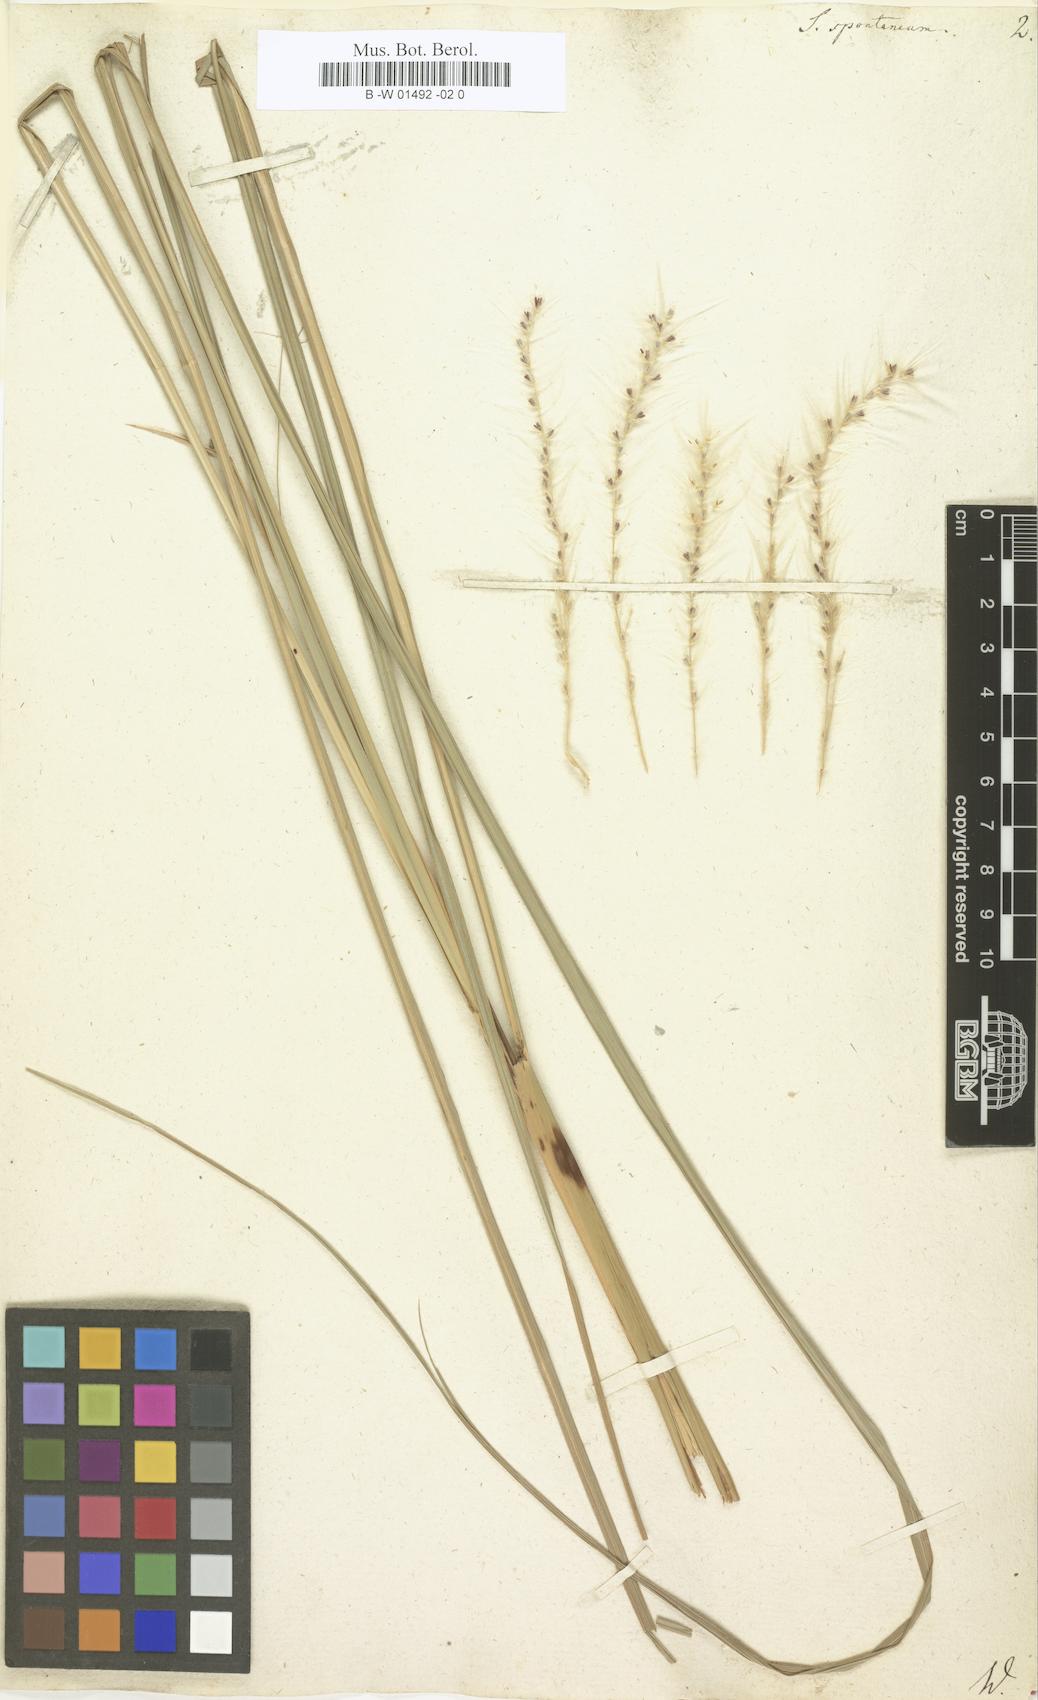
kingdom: Plantae
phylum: Tracheophyta
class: Liliopsida
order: Poales
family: Poaceae
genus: Saccharum
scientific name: Saccharum spontaneum
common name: Wild sugarcane
